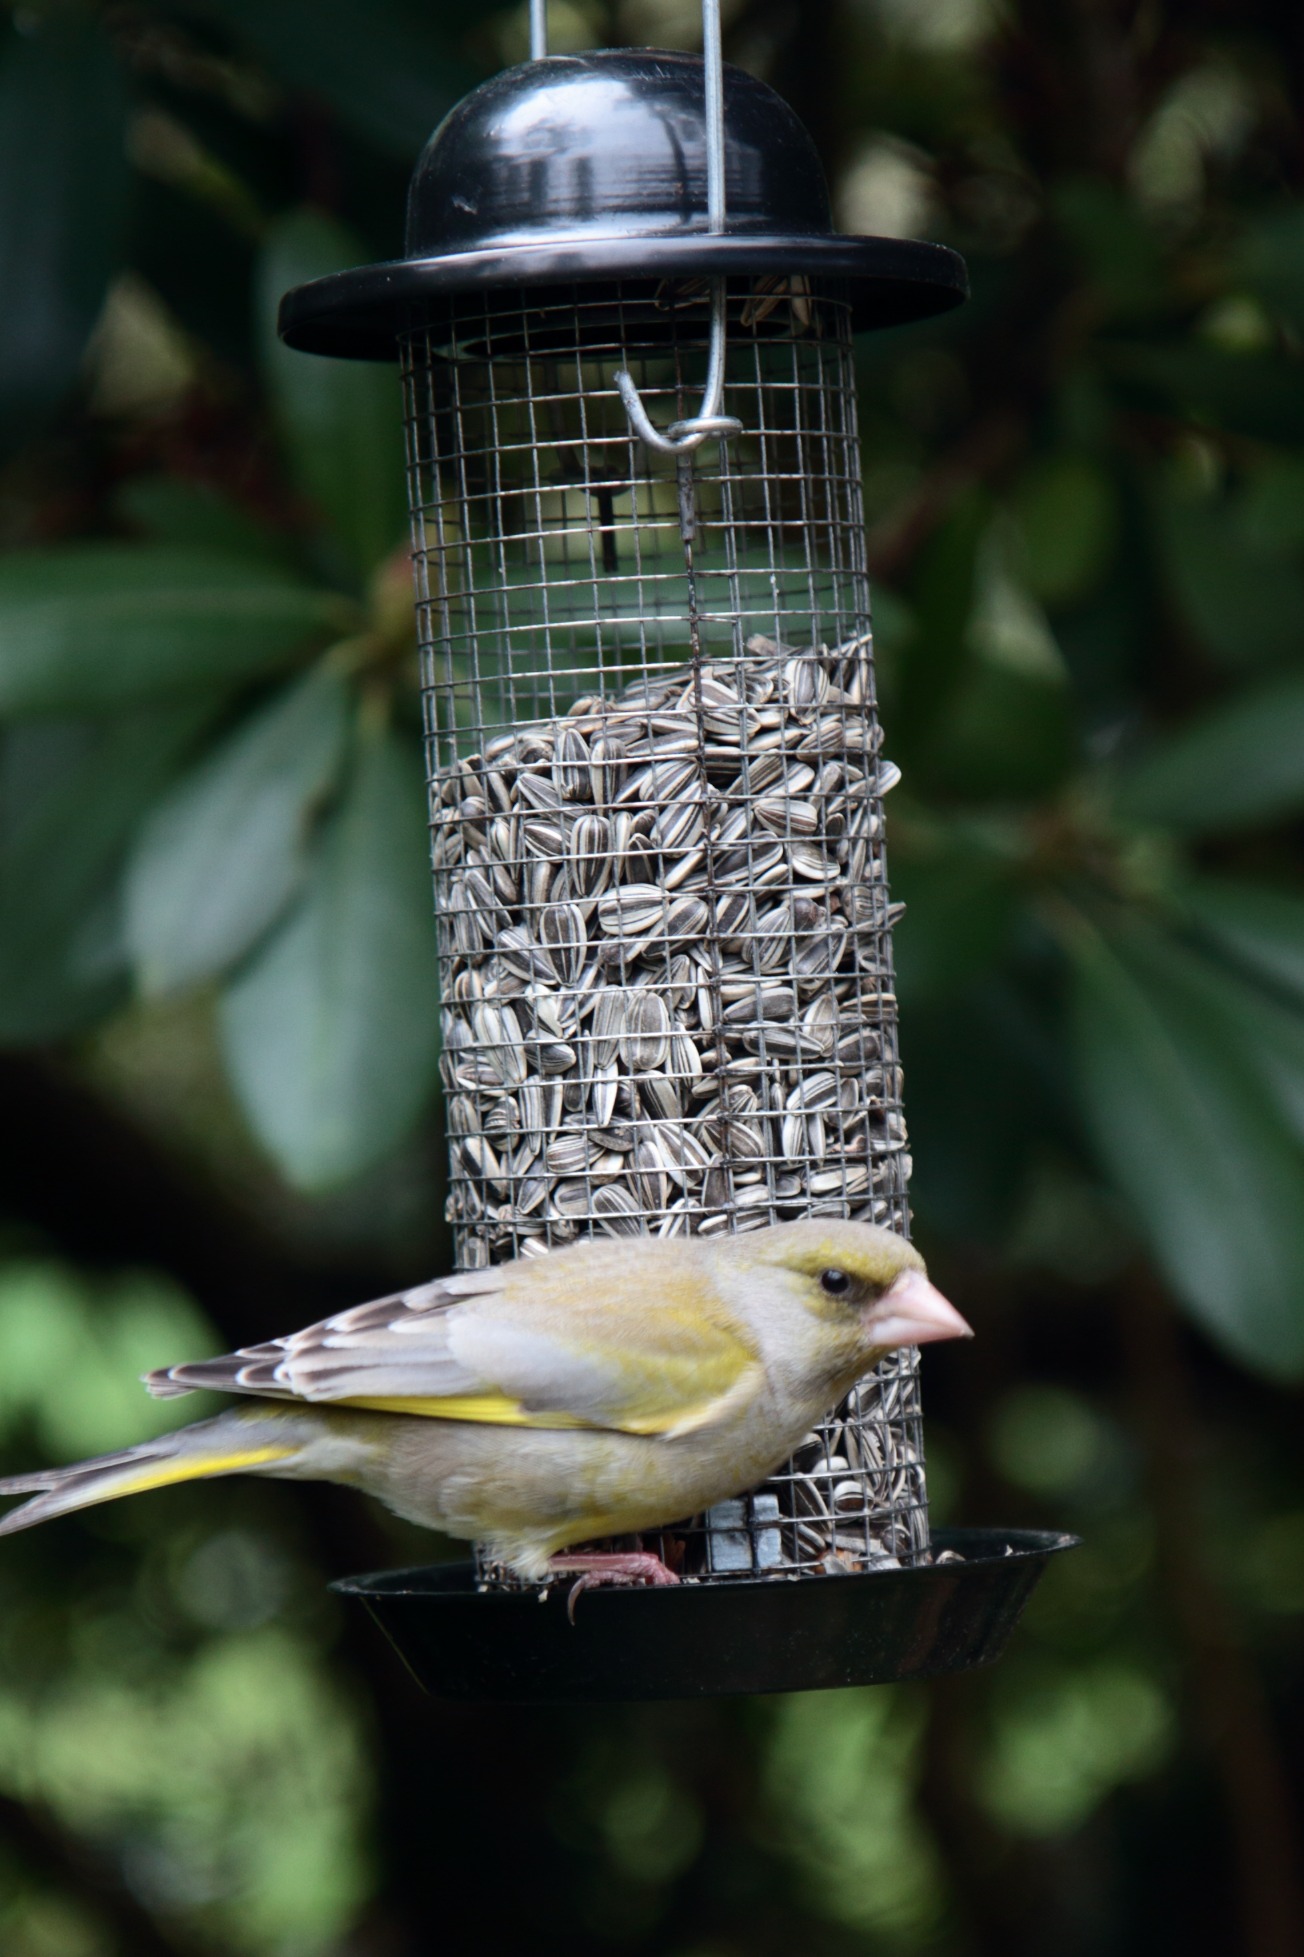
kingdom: Plantae
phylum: Tracheophyta
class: Liliopsida
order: Poales
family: Poaceae
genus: Chloris
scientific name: Chloris chloris
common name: Grønirisk
